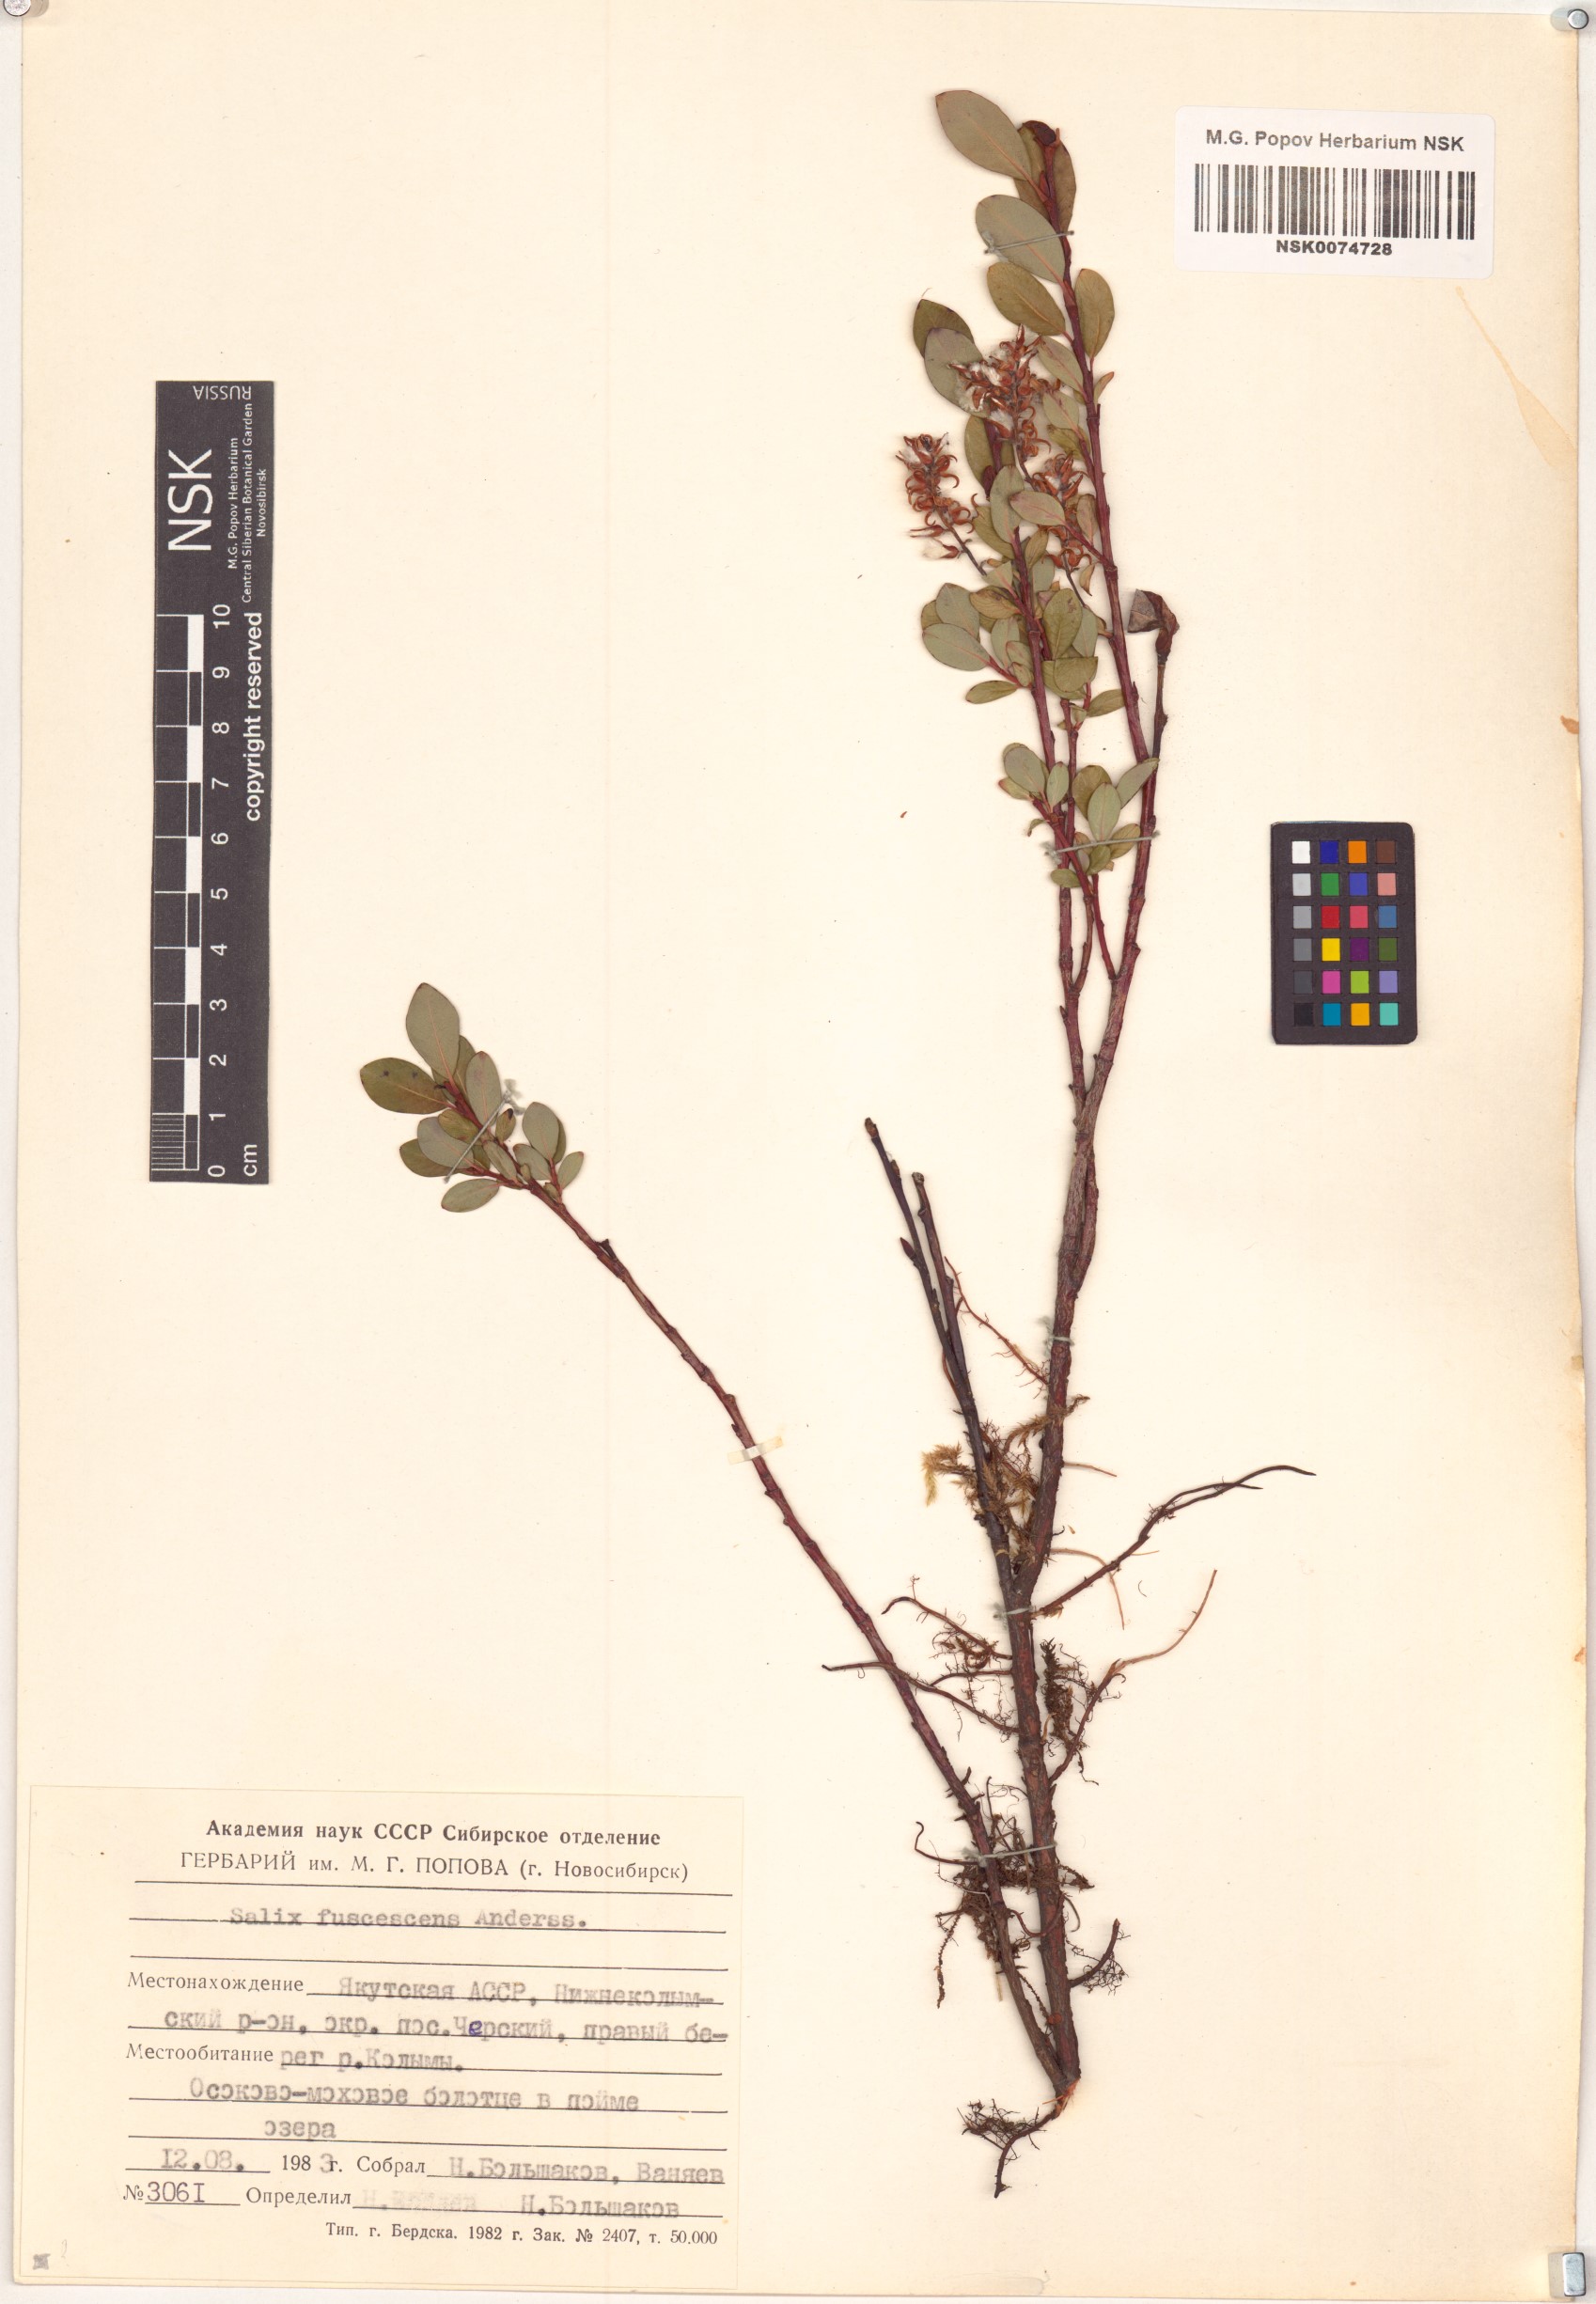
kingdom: Plantae
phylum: Tracheophyta
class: Magnoliopsida
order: Malpighiales
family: Salicaceae
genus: Salix
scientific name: Salix fuscescens
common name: Brownish willow
